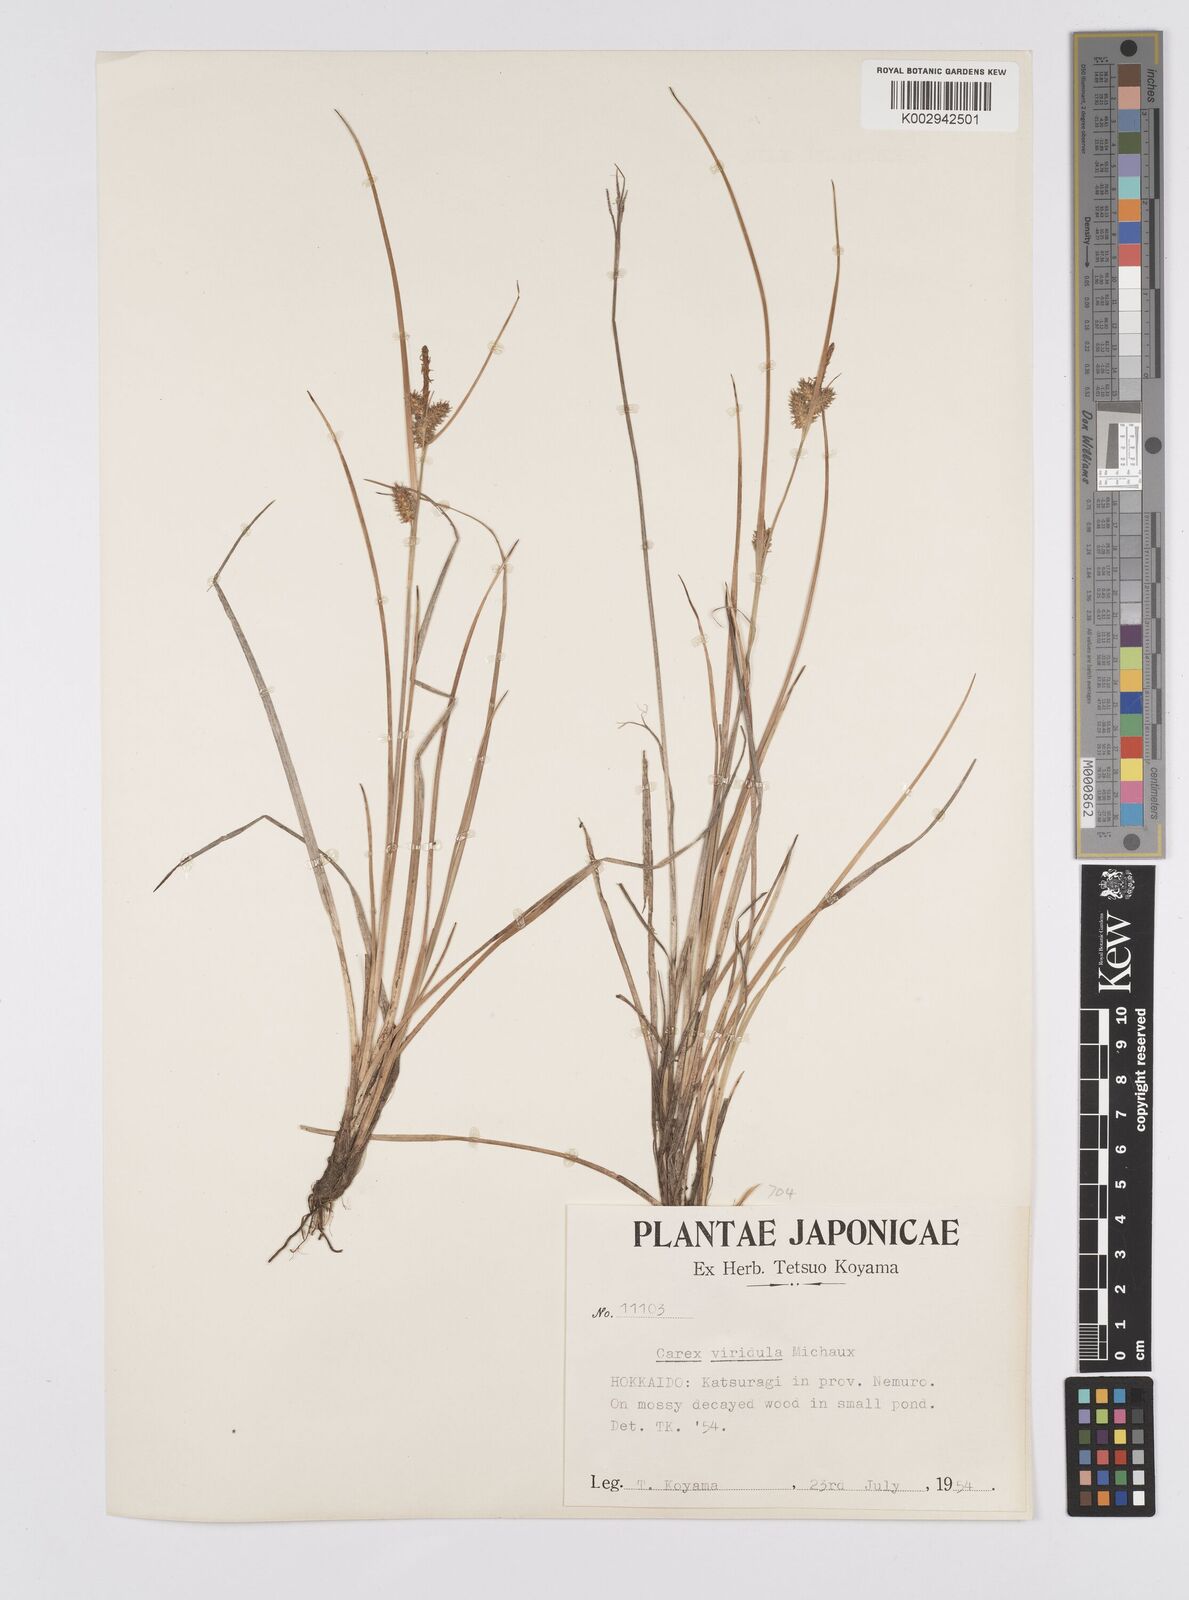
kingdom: Plantae
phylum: Tracheophyta
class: Liliopsida
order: Poales
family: Cyperaceae
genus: Carex
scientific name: Carex oederi
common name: Common & small-fruited yellow-sedge
